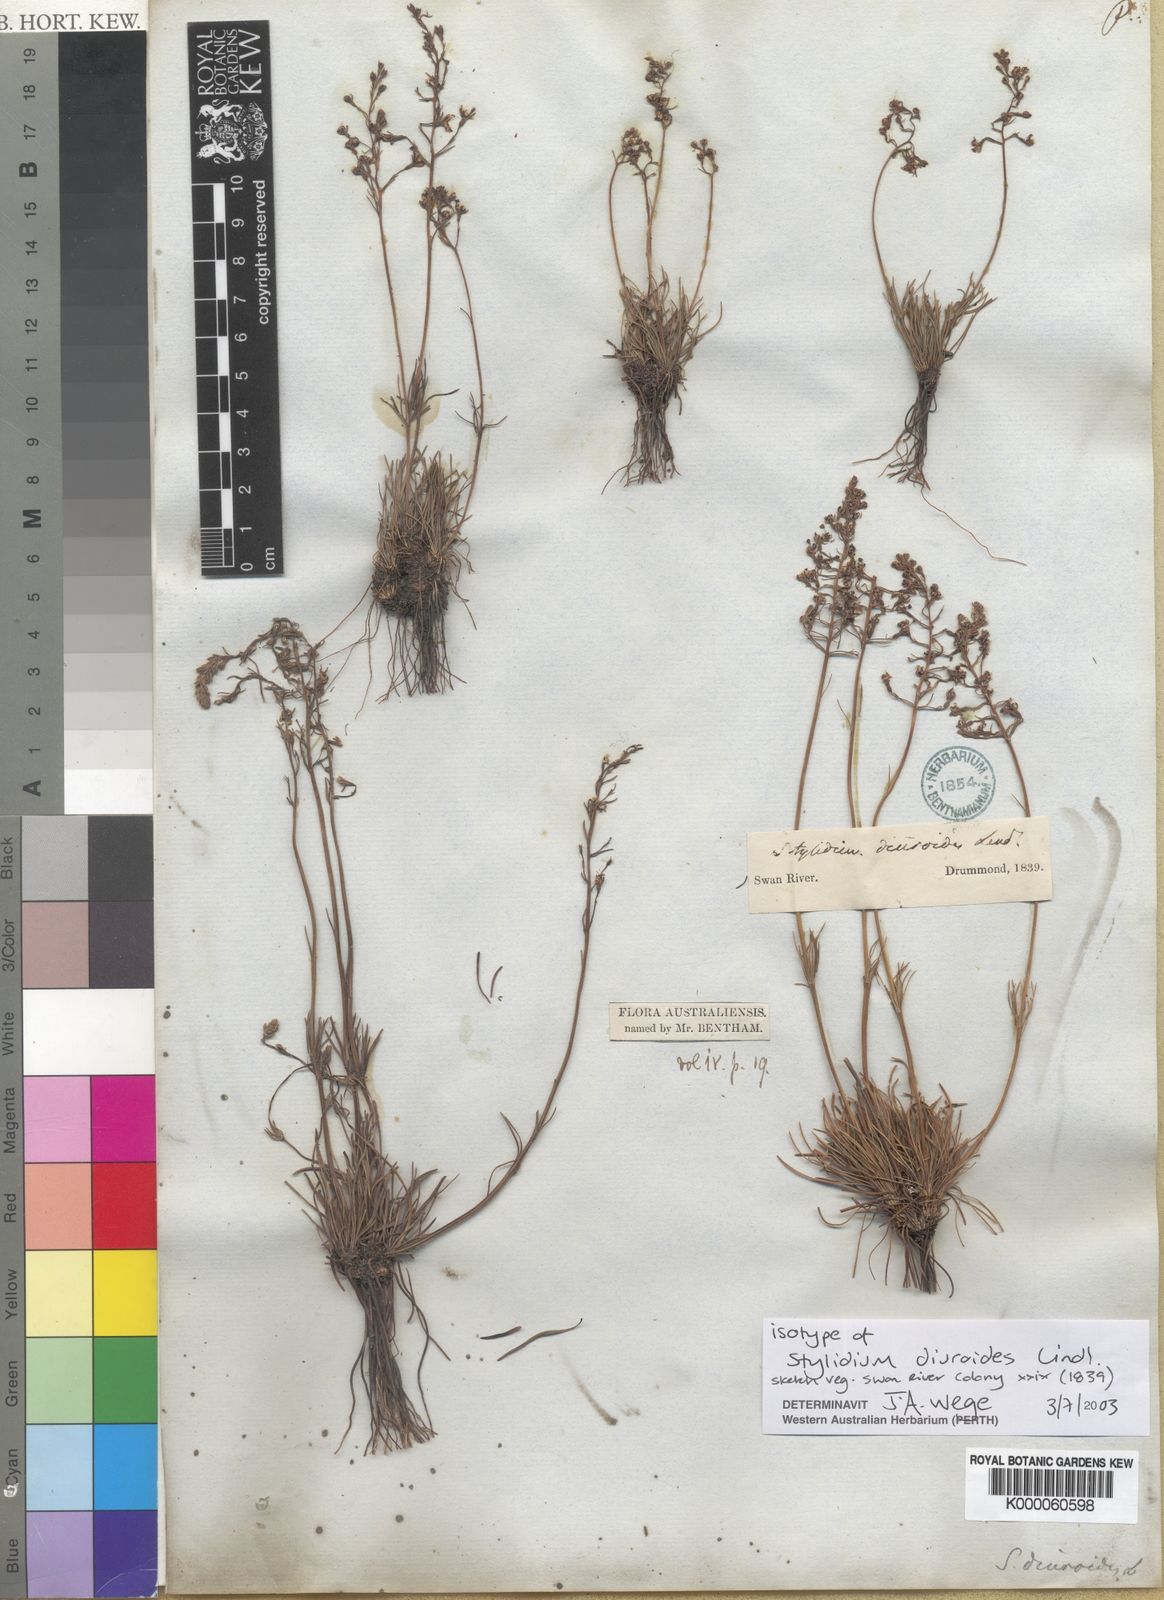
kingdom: Plantae
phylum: Tracheophyta
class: Magnoliopsida
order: Asterales
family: Stylidiaceae
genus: Stylidium
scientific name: Stylidium diuroides
